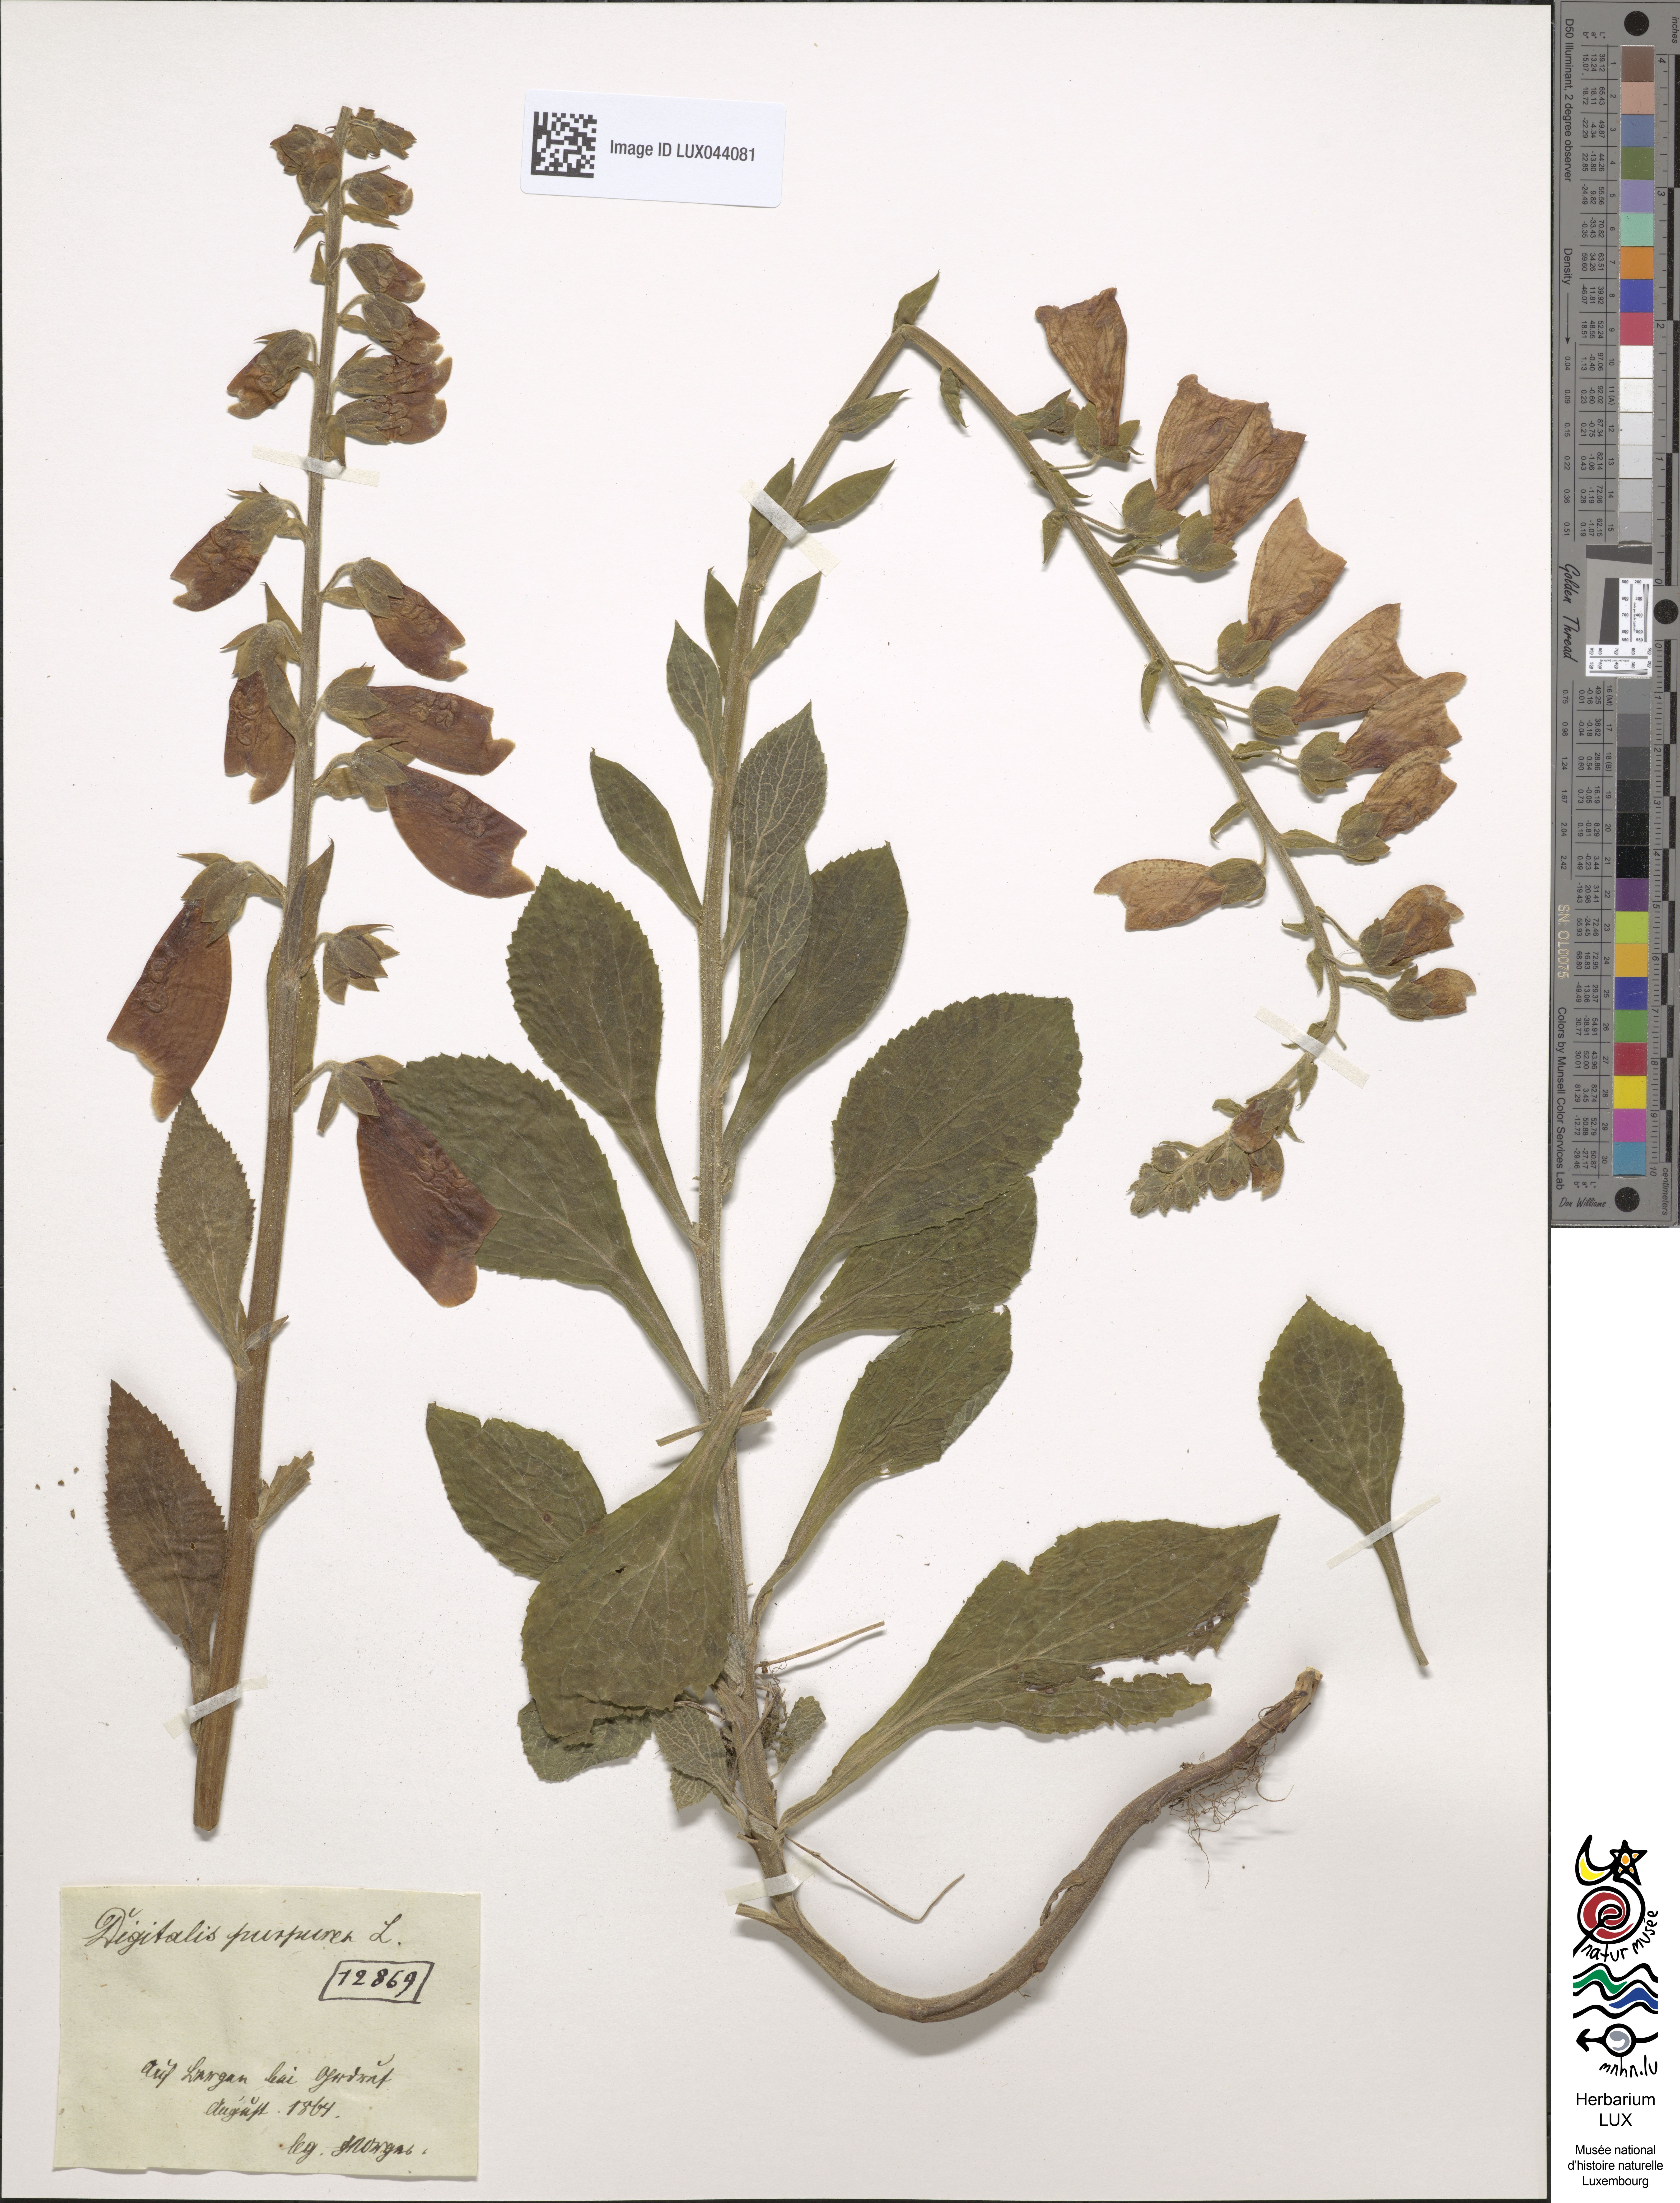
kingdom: Plantae
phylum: Tracheophyta
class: Magnoliopsida
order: Lamiales
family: Plantaginaceae
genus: Digitalis
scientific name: Digitalis purpurea
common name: Foxglove
